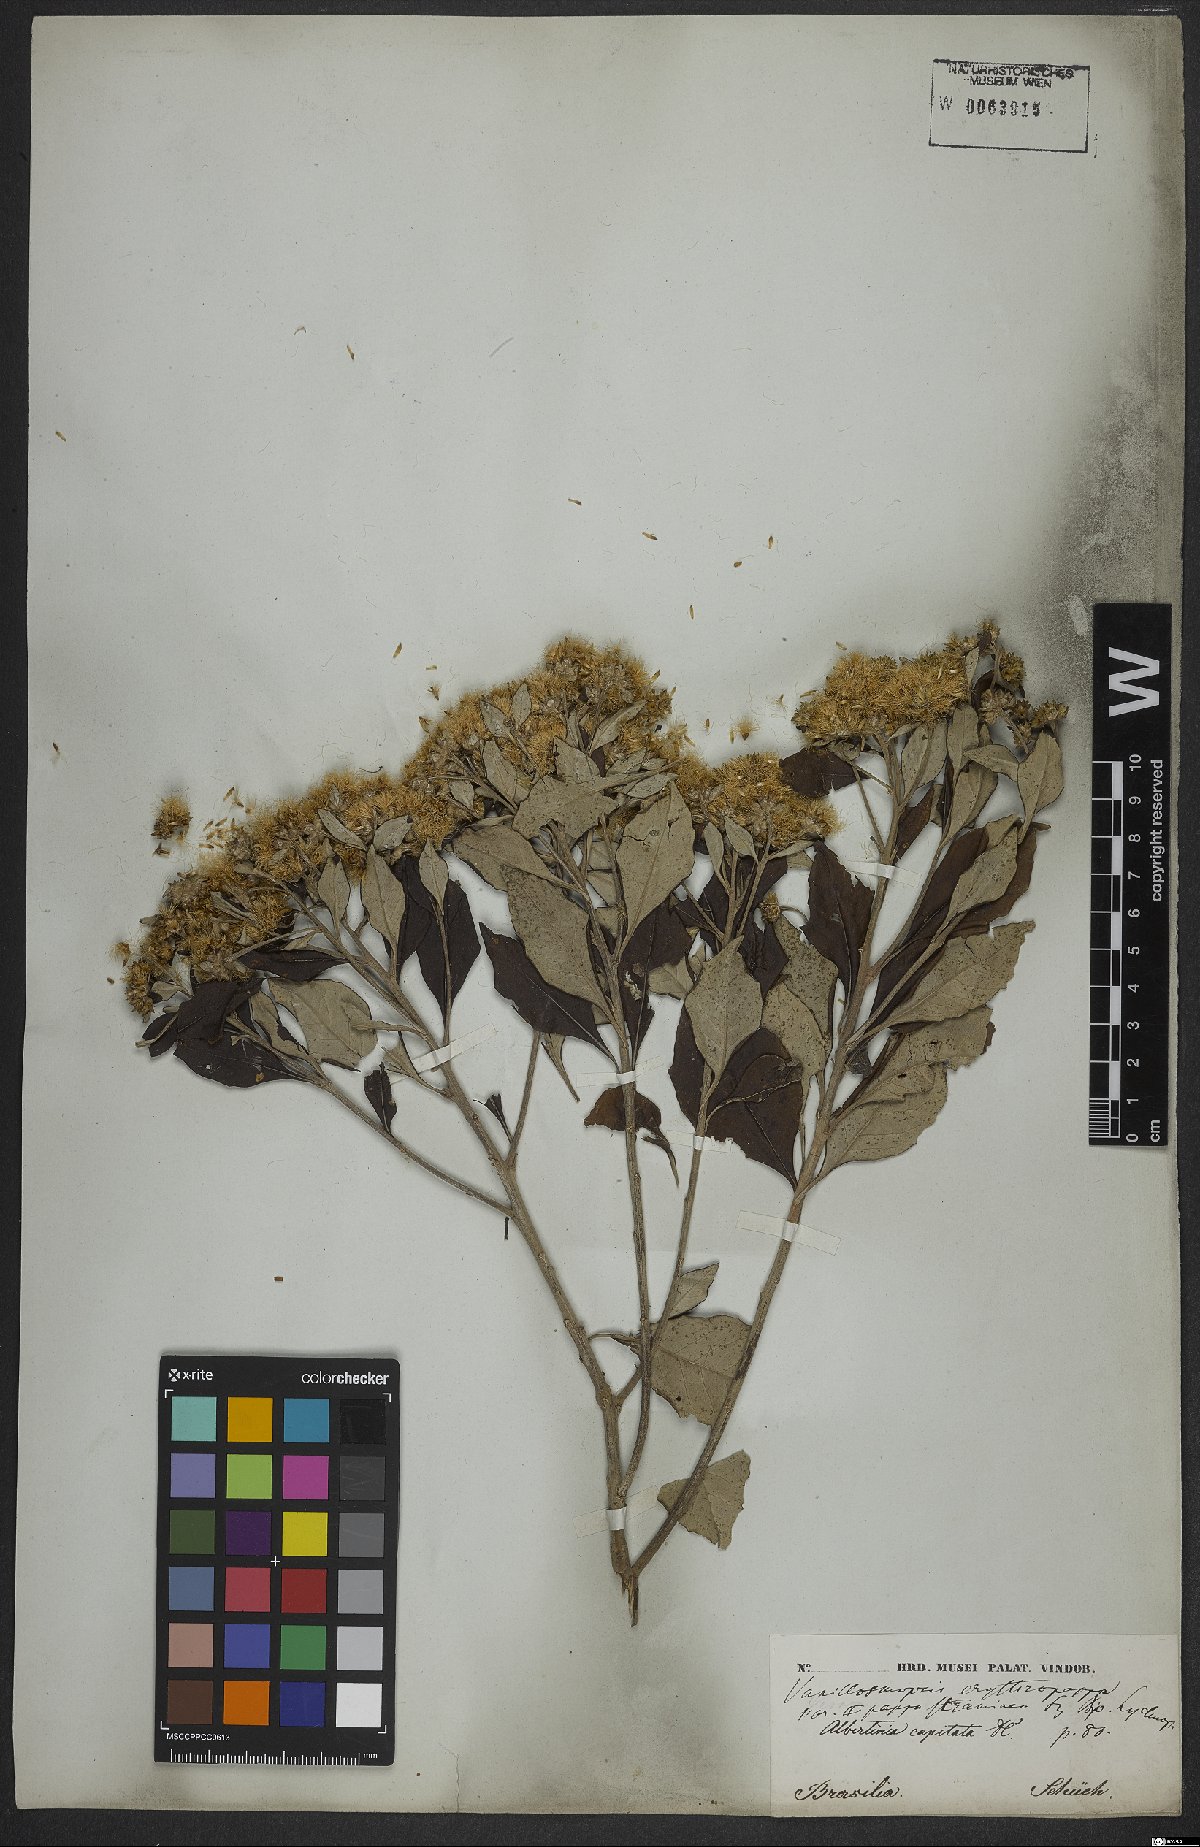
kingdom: Plantae
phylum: Tracheophyta
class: Magnoliopsida
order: Asterales
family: Asteraceae
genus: Eremanthus
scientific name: Eremanthus erythropappus
